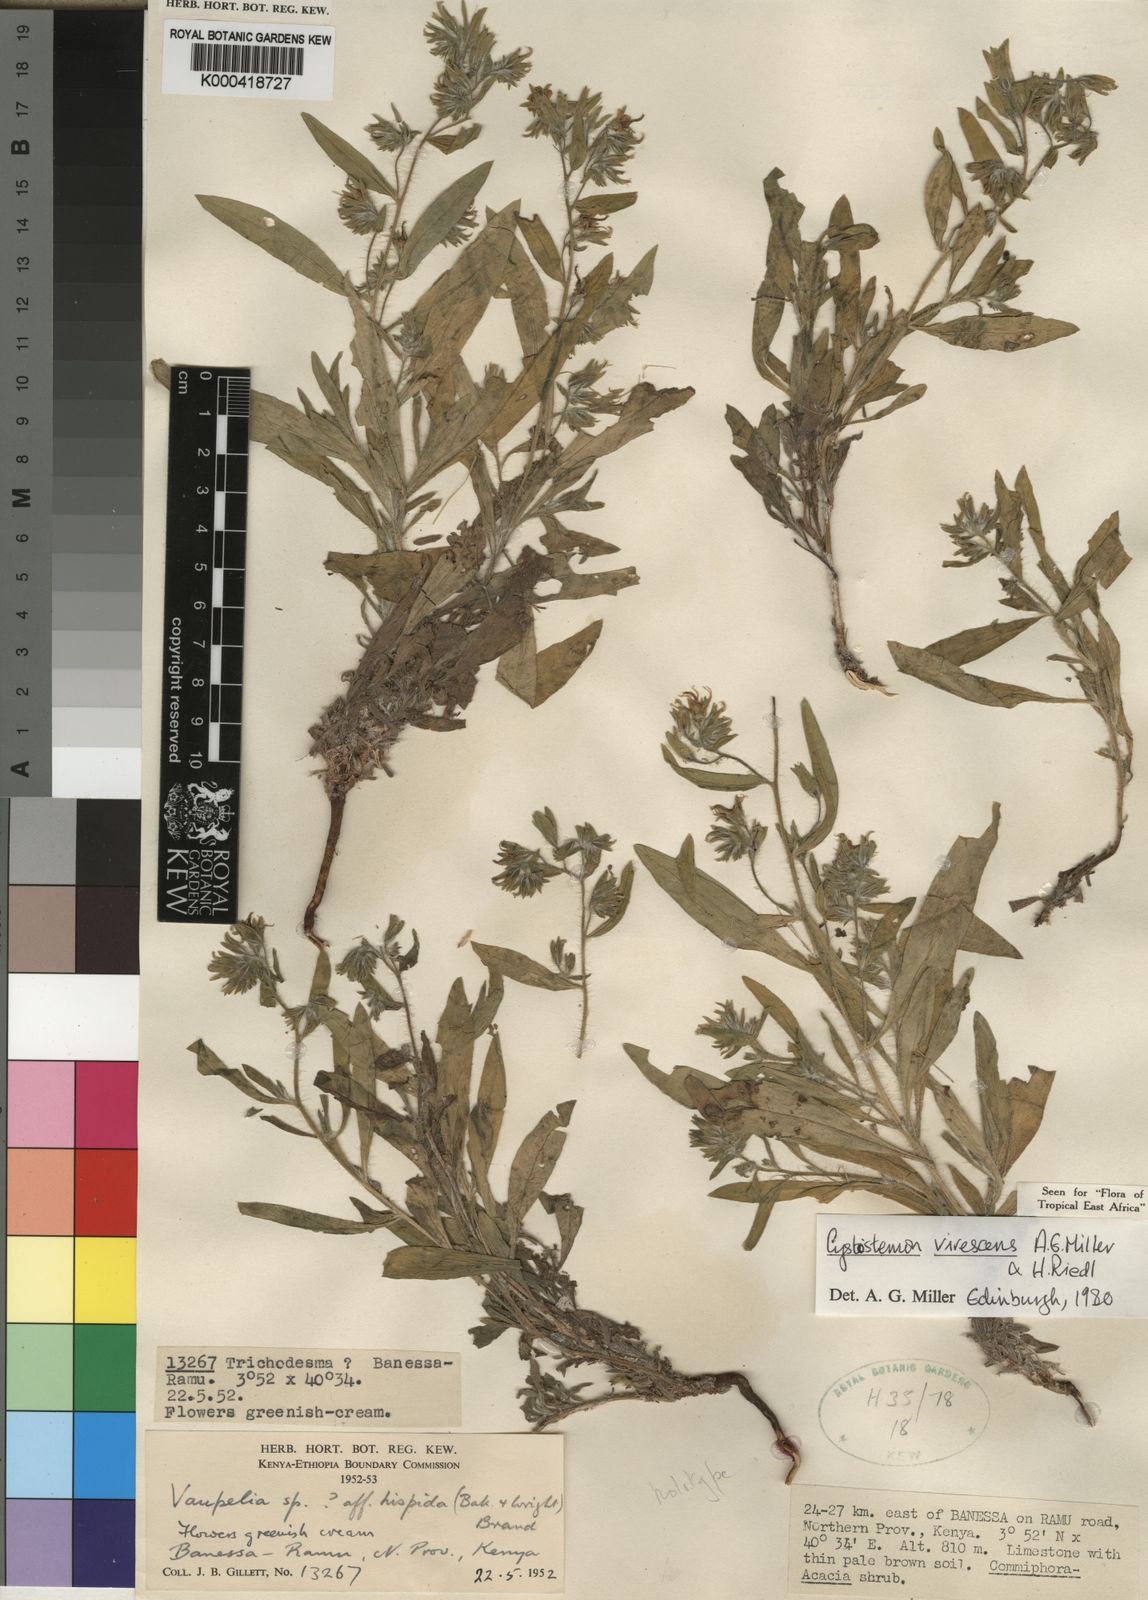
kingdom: Plantae
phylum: Tracheophyta
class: Magnoliopsida
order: Boraginales
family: Boraginaceae
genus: Cystostemon
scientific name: Cystostemon virescens
